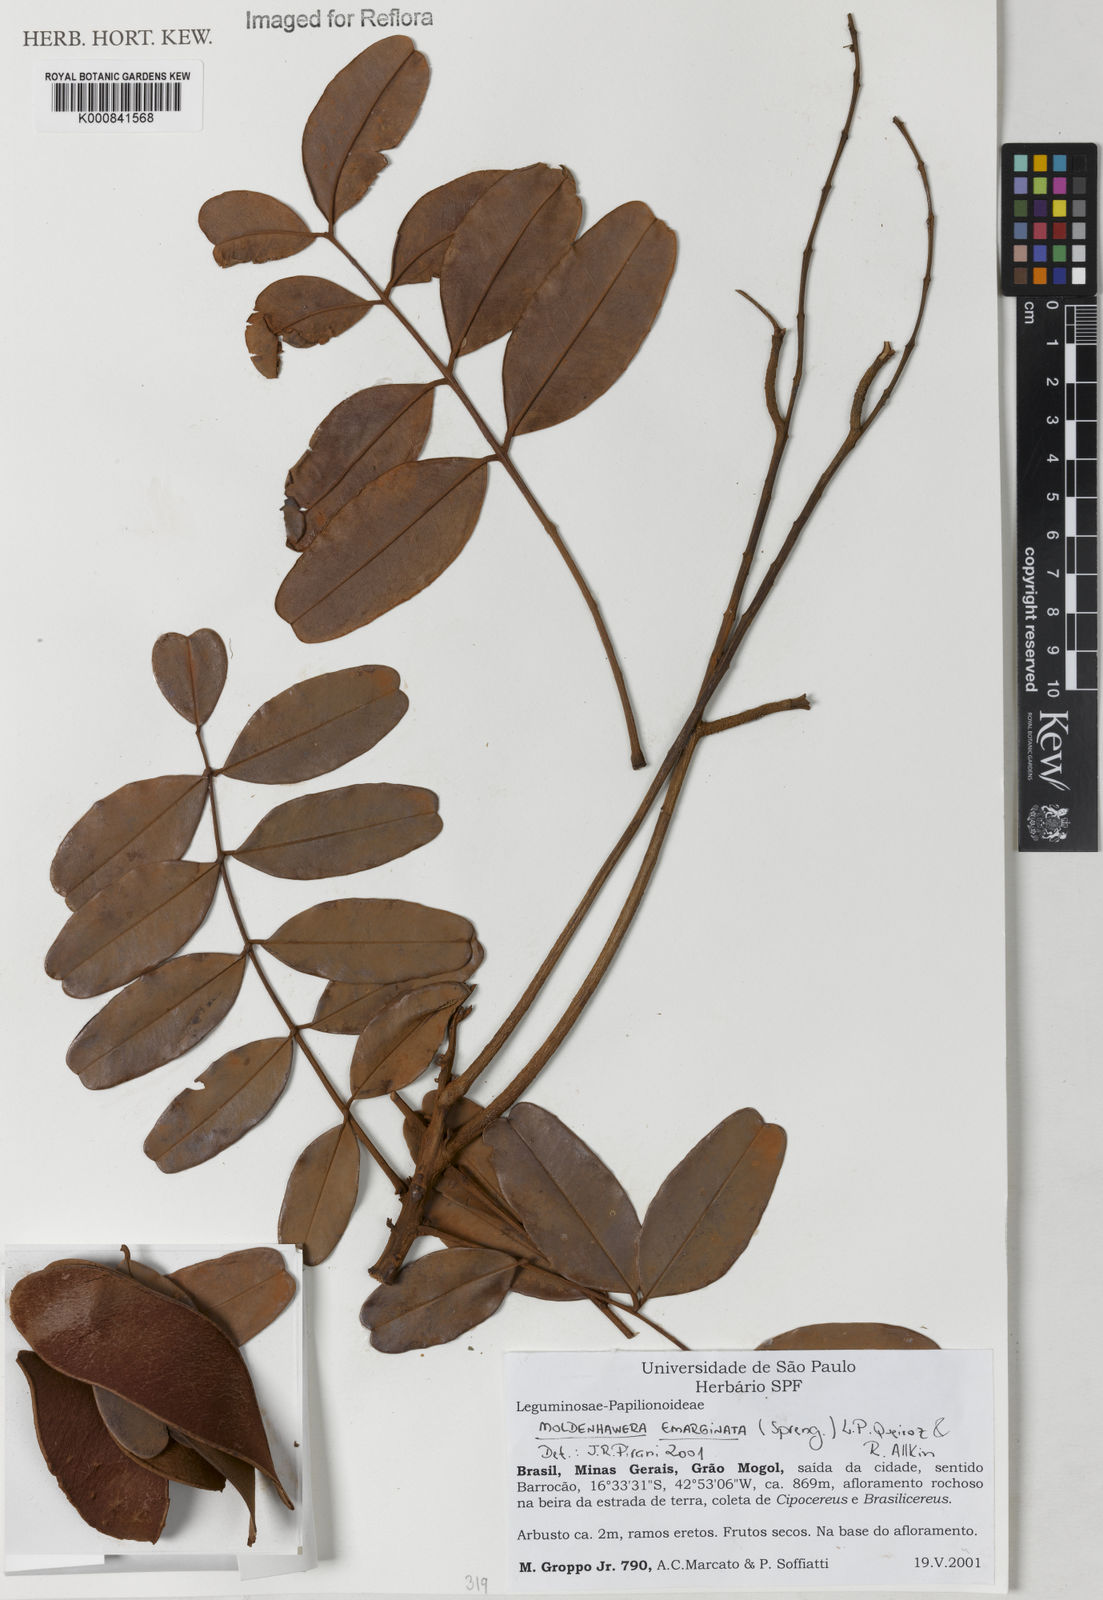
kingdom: Plantae
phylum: Tracheophyta
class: Magnoliopsida
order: Fabales
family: Fabaceae
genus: Moldenhawera
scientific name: Moldenhawera emarginata
